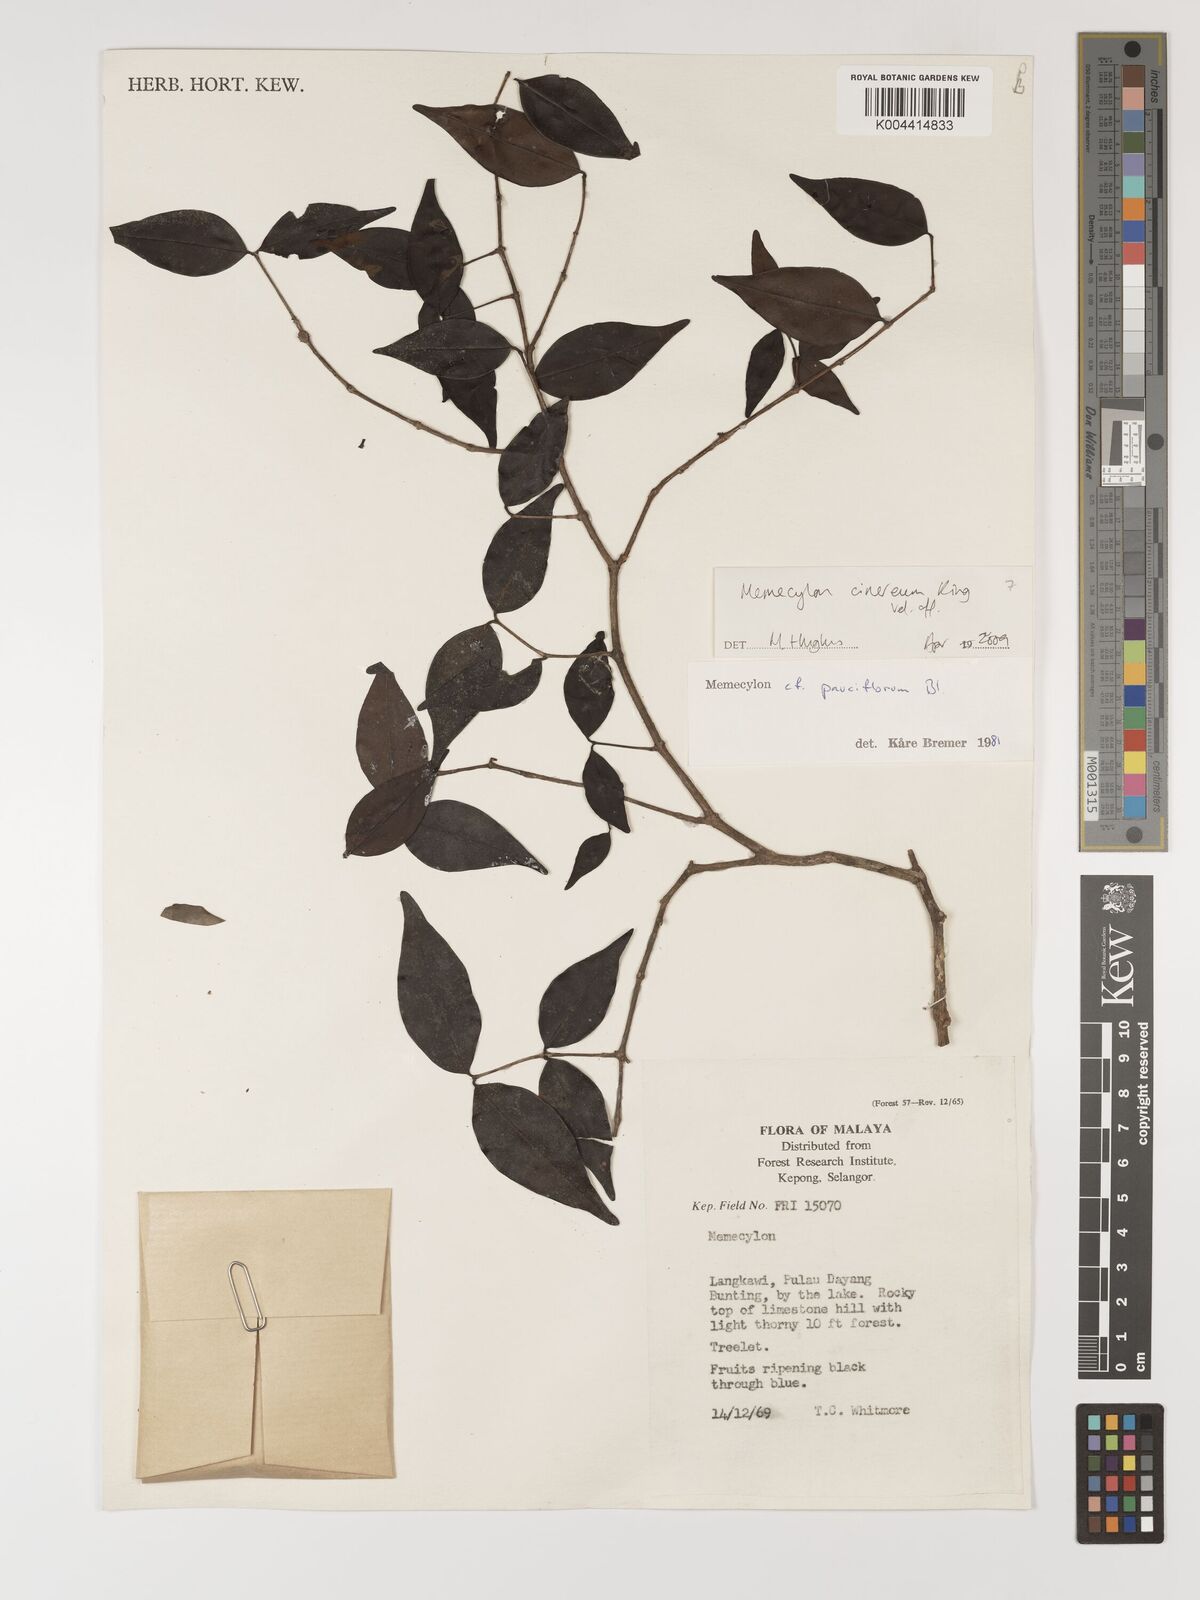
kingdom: Plantae
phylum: Tracheophyta
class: Magnoliopsida
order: Myrtales
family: Melastomataceae
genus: Memecylon
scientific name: Memecylon cinereum
